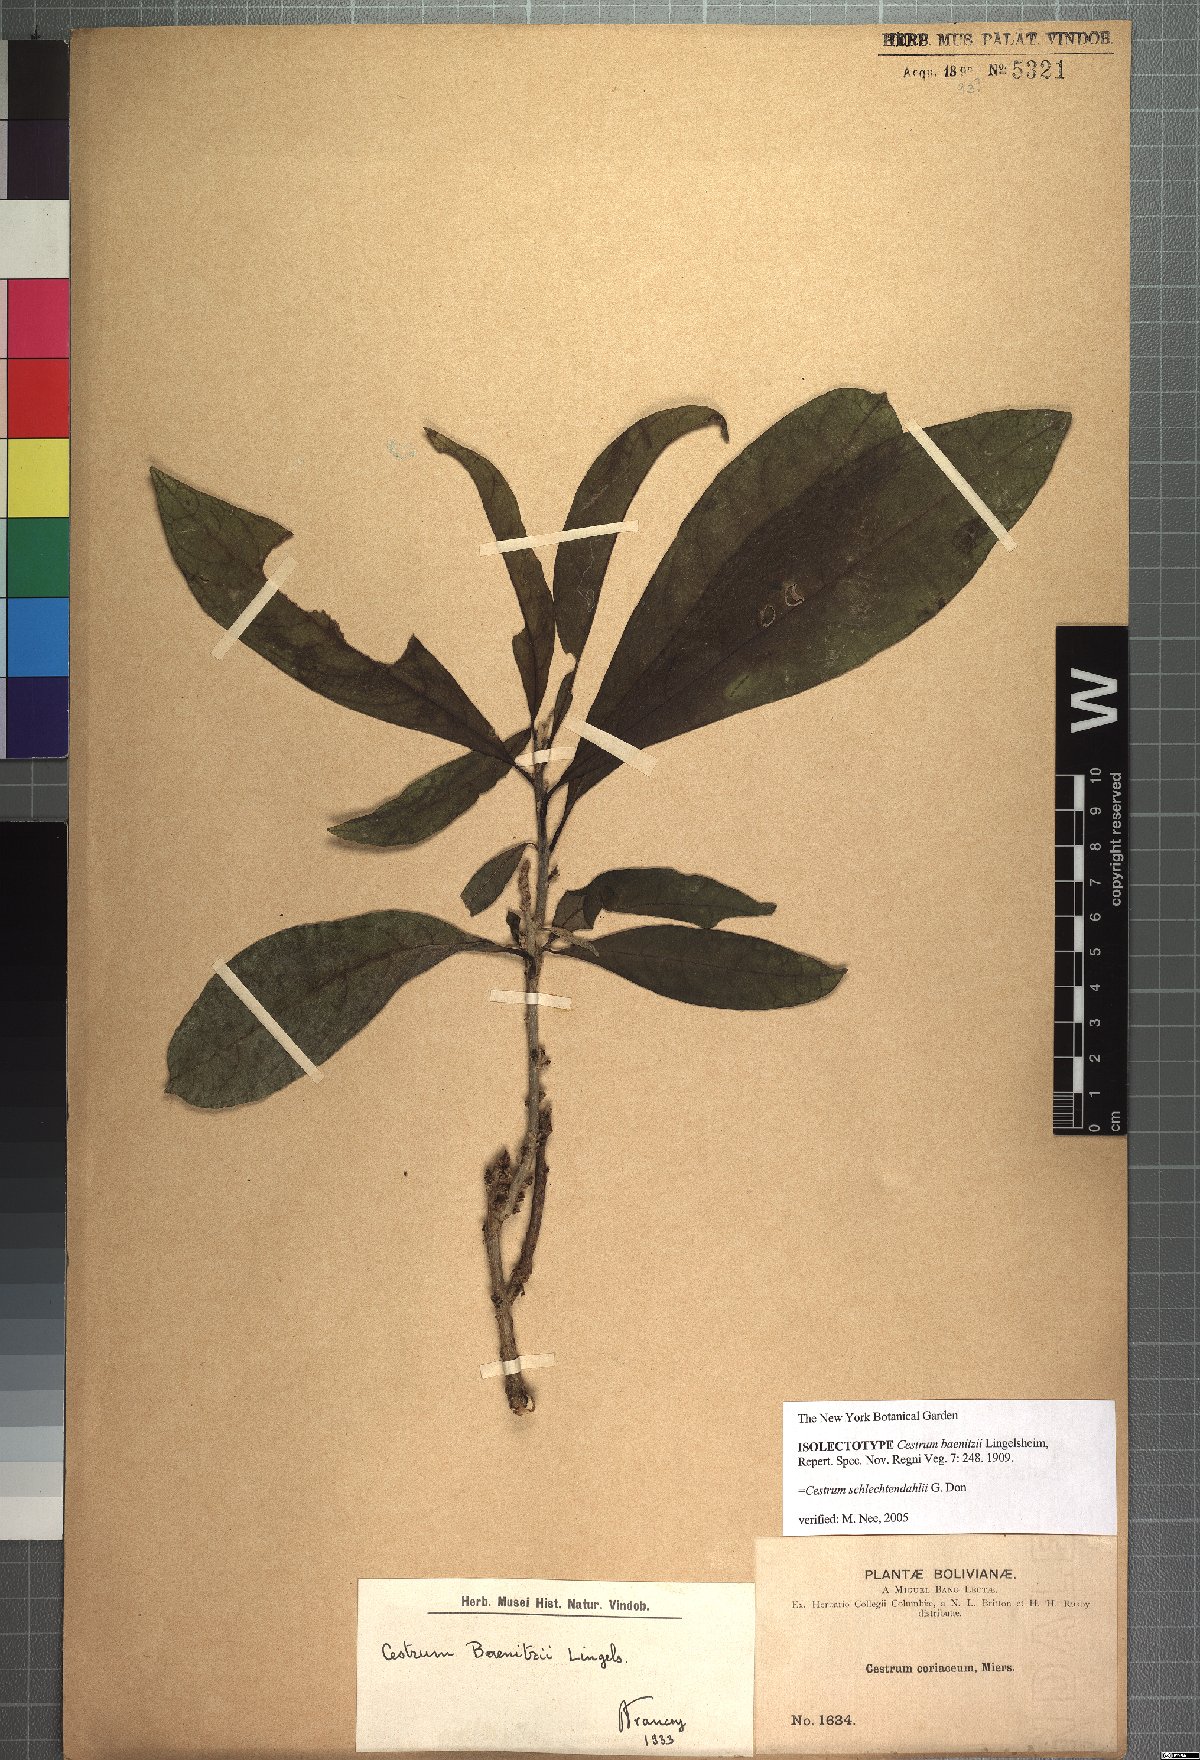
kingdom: Plantae
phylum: Tracheophyta
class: Magnoliopsida
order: Solanales
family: Solanaceae
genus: Cestrum
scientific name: Cestrum schlechtendalii
